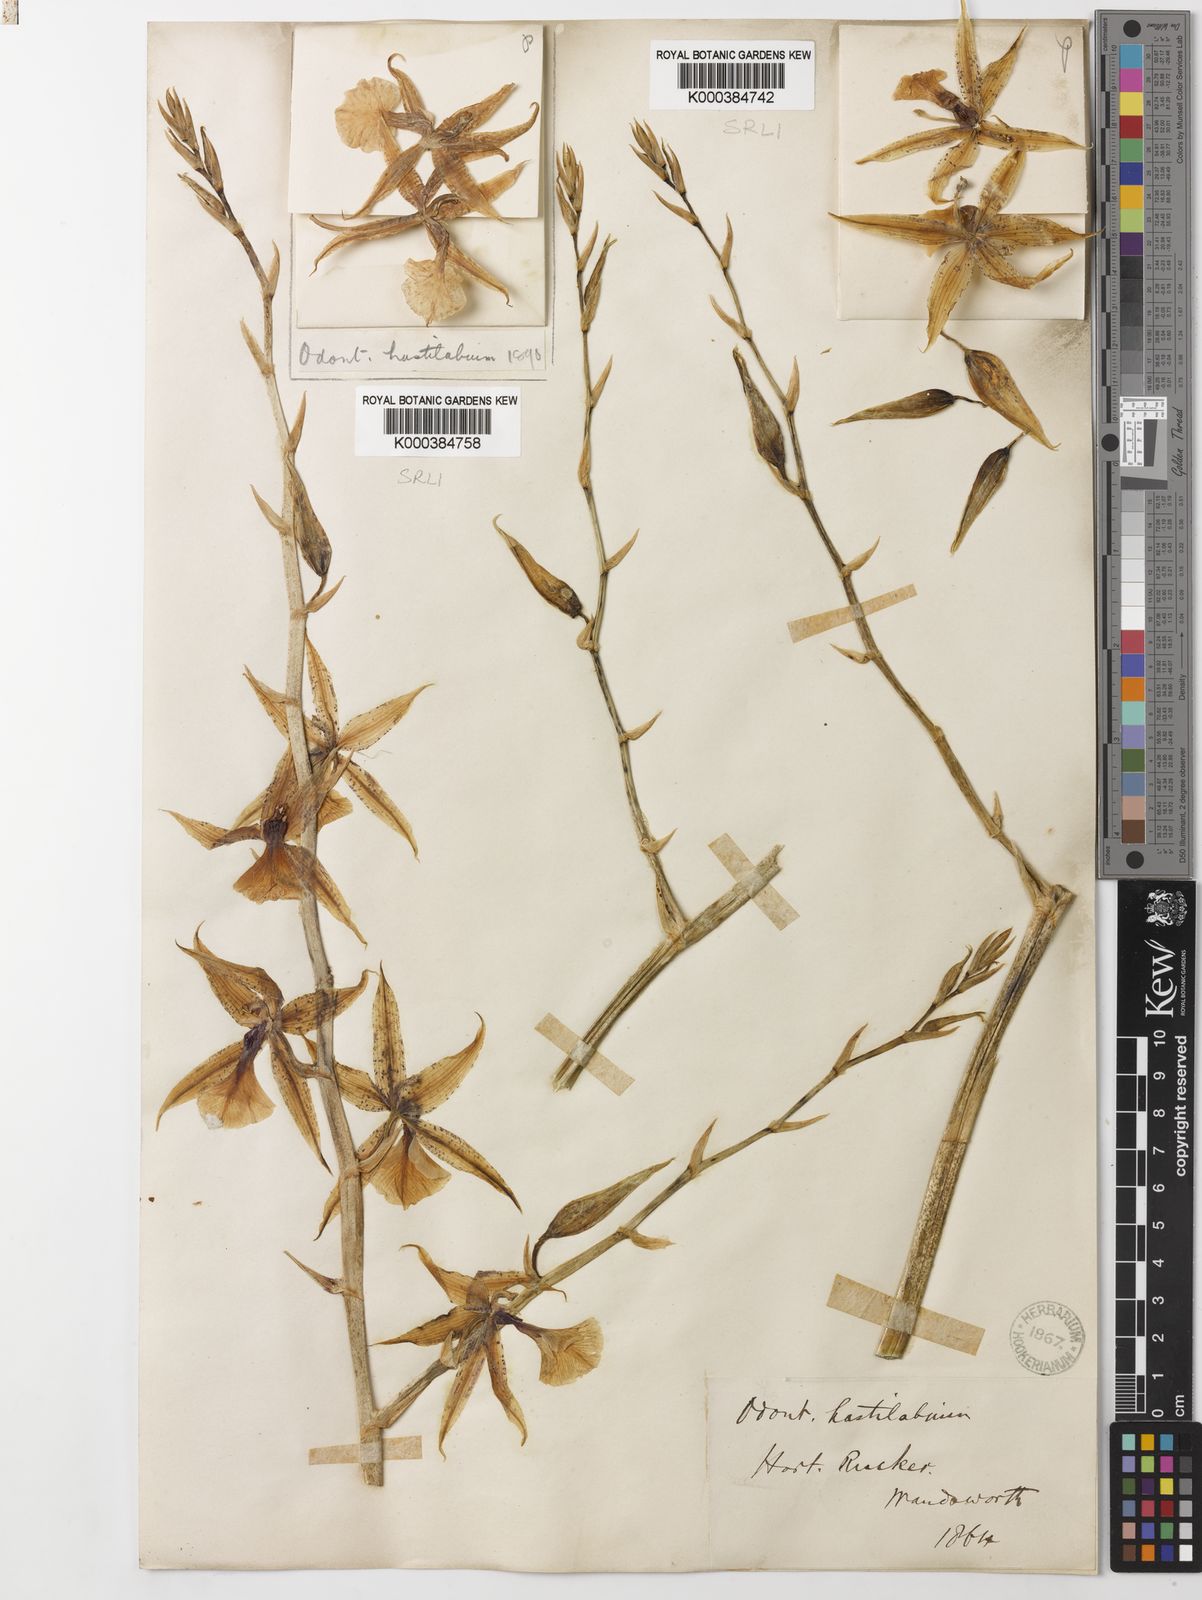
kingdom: Plantae
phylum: Tracheophyta
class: Liliopsida
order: Asparagales
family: Orchidaceae
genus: Oncidium
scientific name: Oncidium hastilabium
